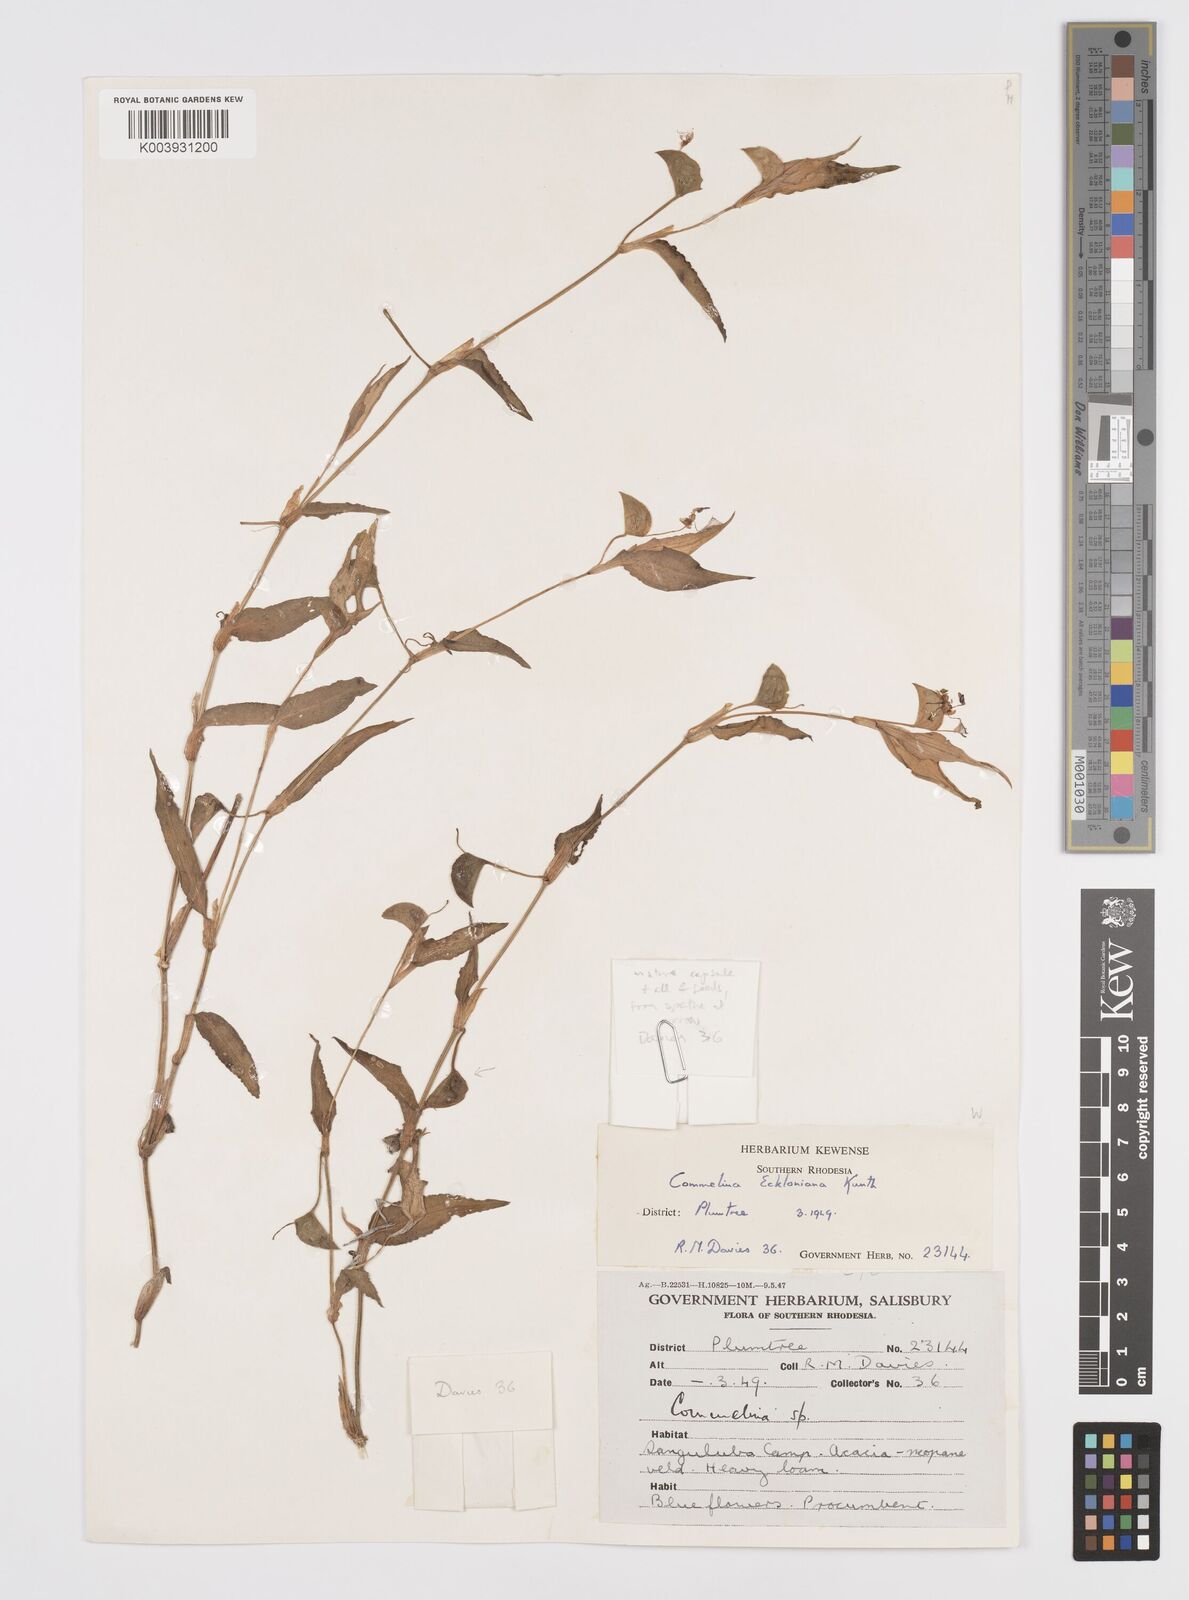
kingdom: Plantae
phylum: Tracheophyta
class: Liliopsida
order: Commelinales
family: Commelinaceae
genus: Commelina
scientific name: Commelina eckloniana
